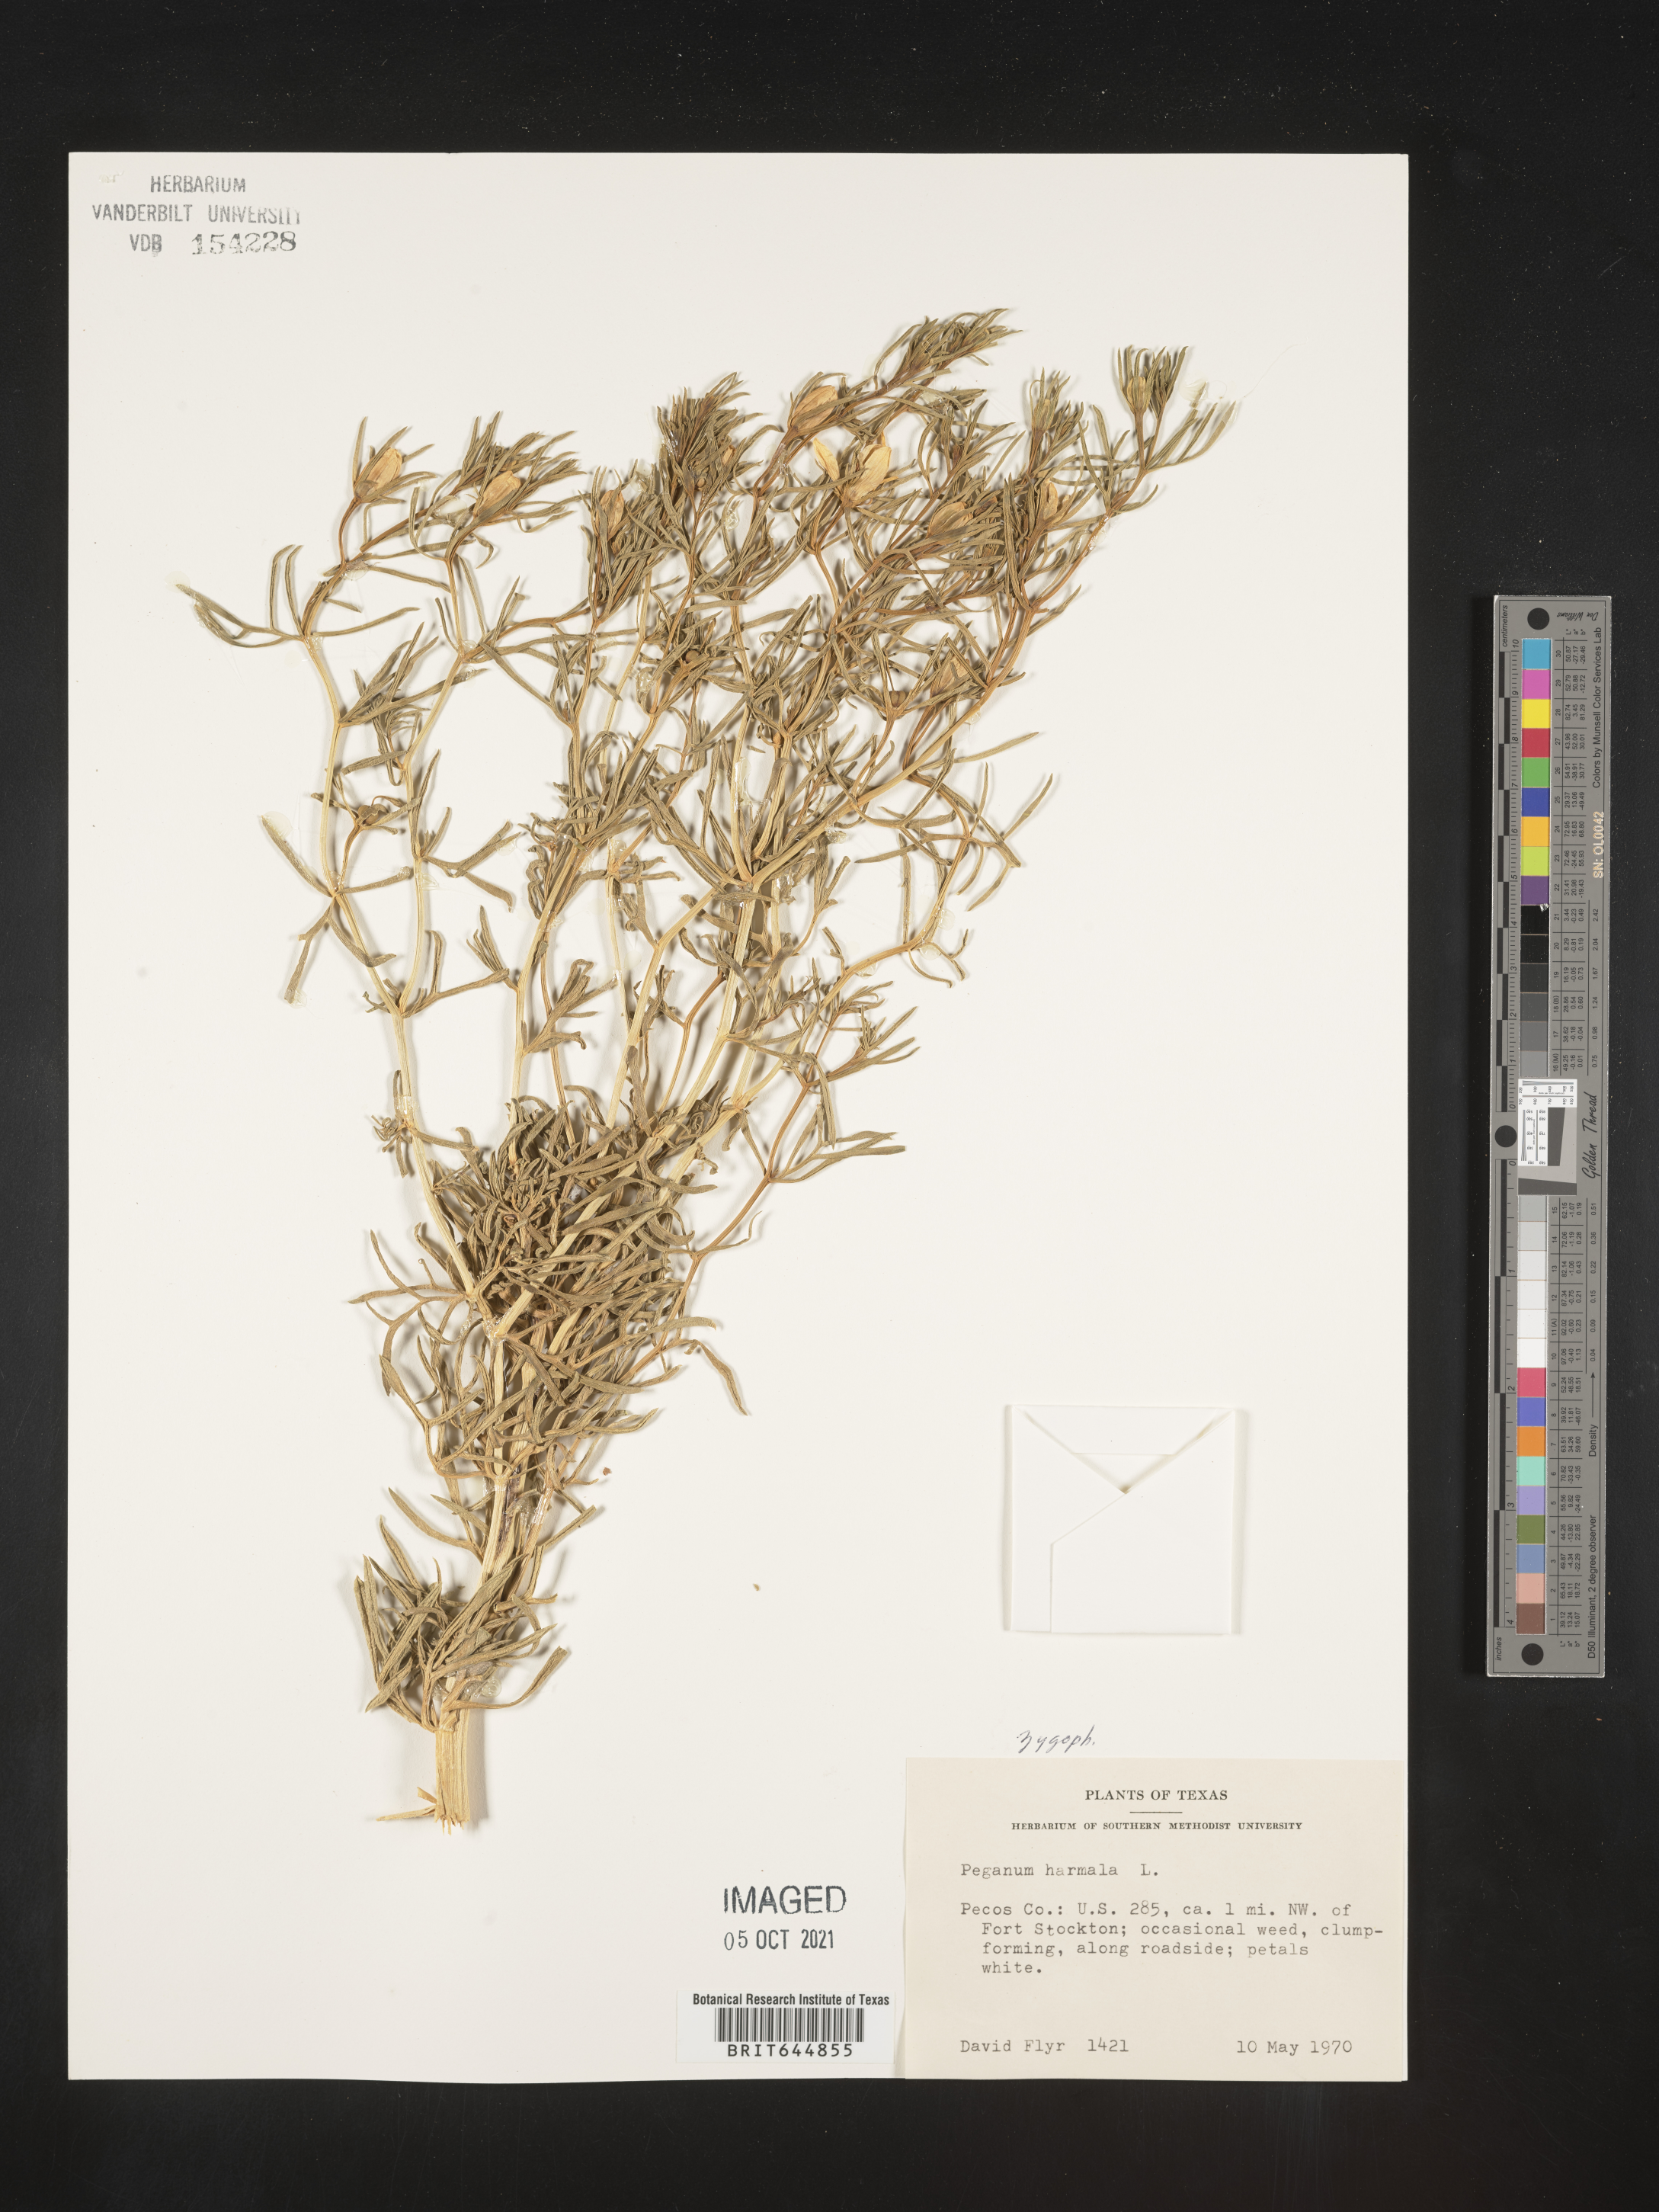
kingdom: Plantae
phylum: Tracheophyta
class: Magnoliopsida
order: Sapindales
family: Tetradiclidaceae
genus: Peganum
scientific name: Peganum harmala
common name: Harmal peganum
